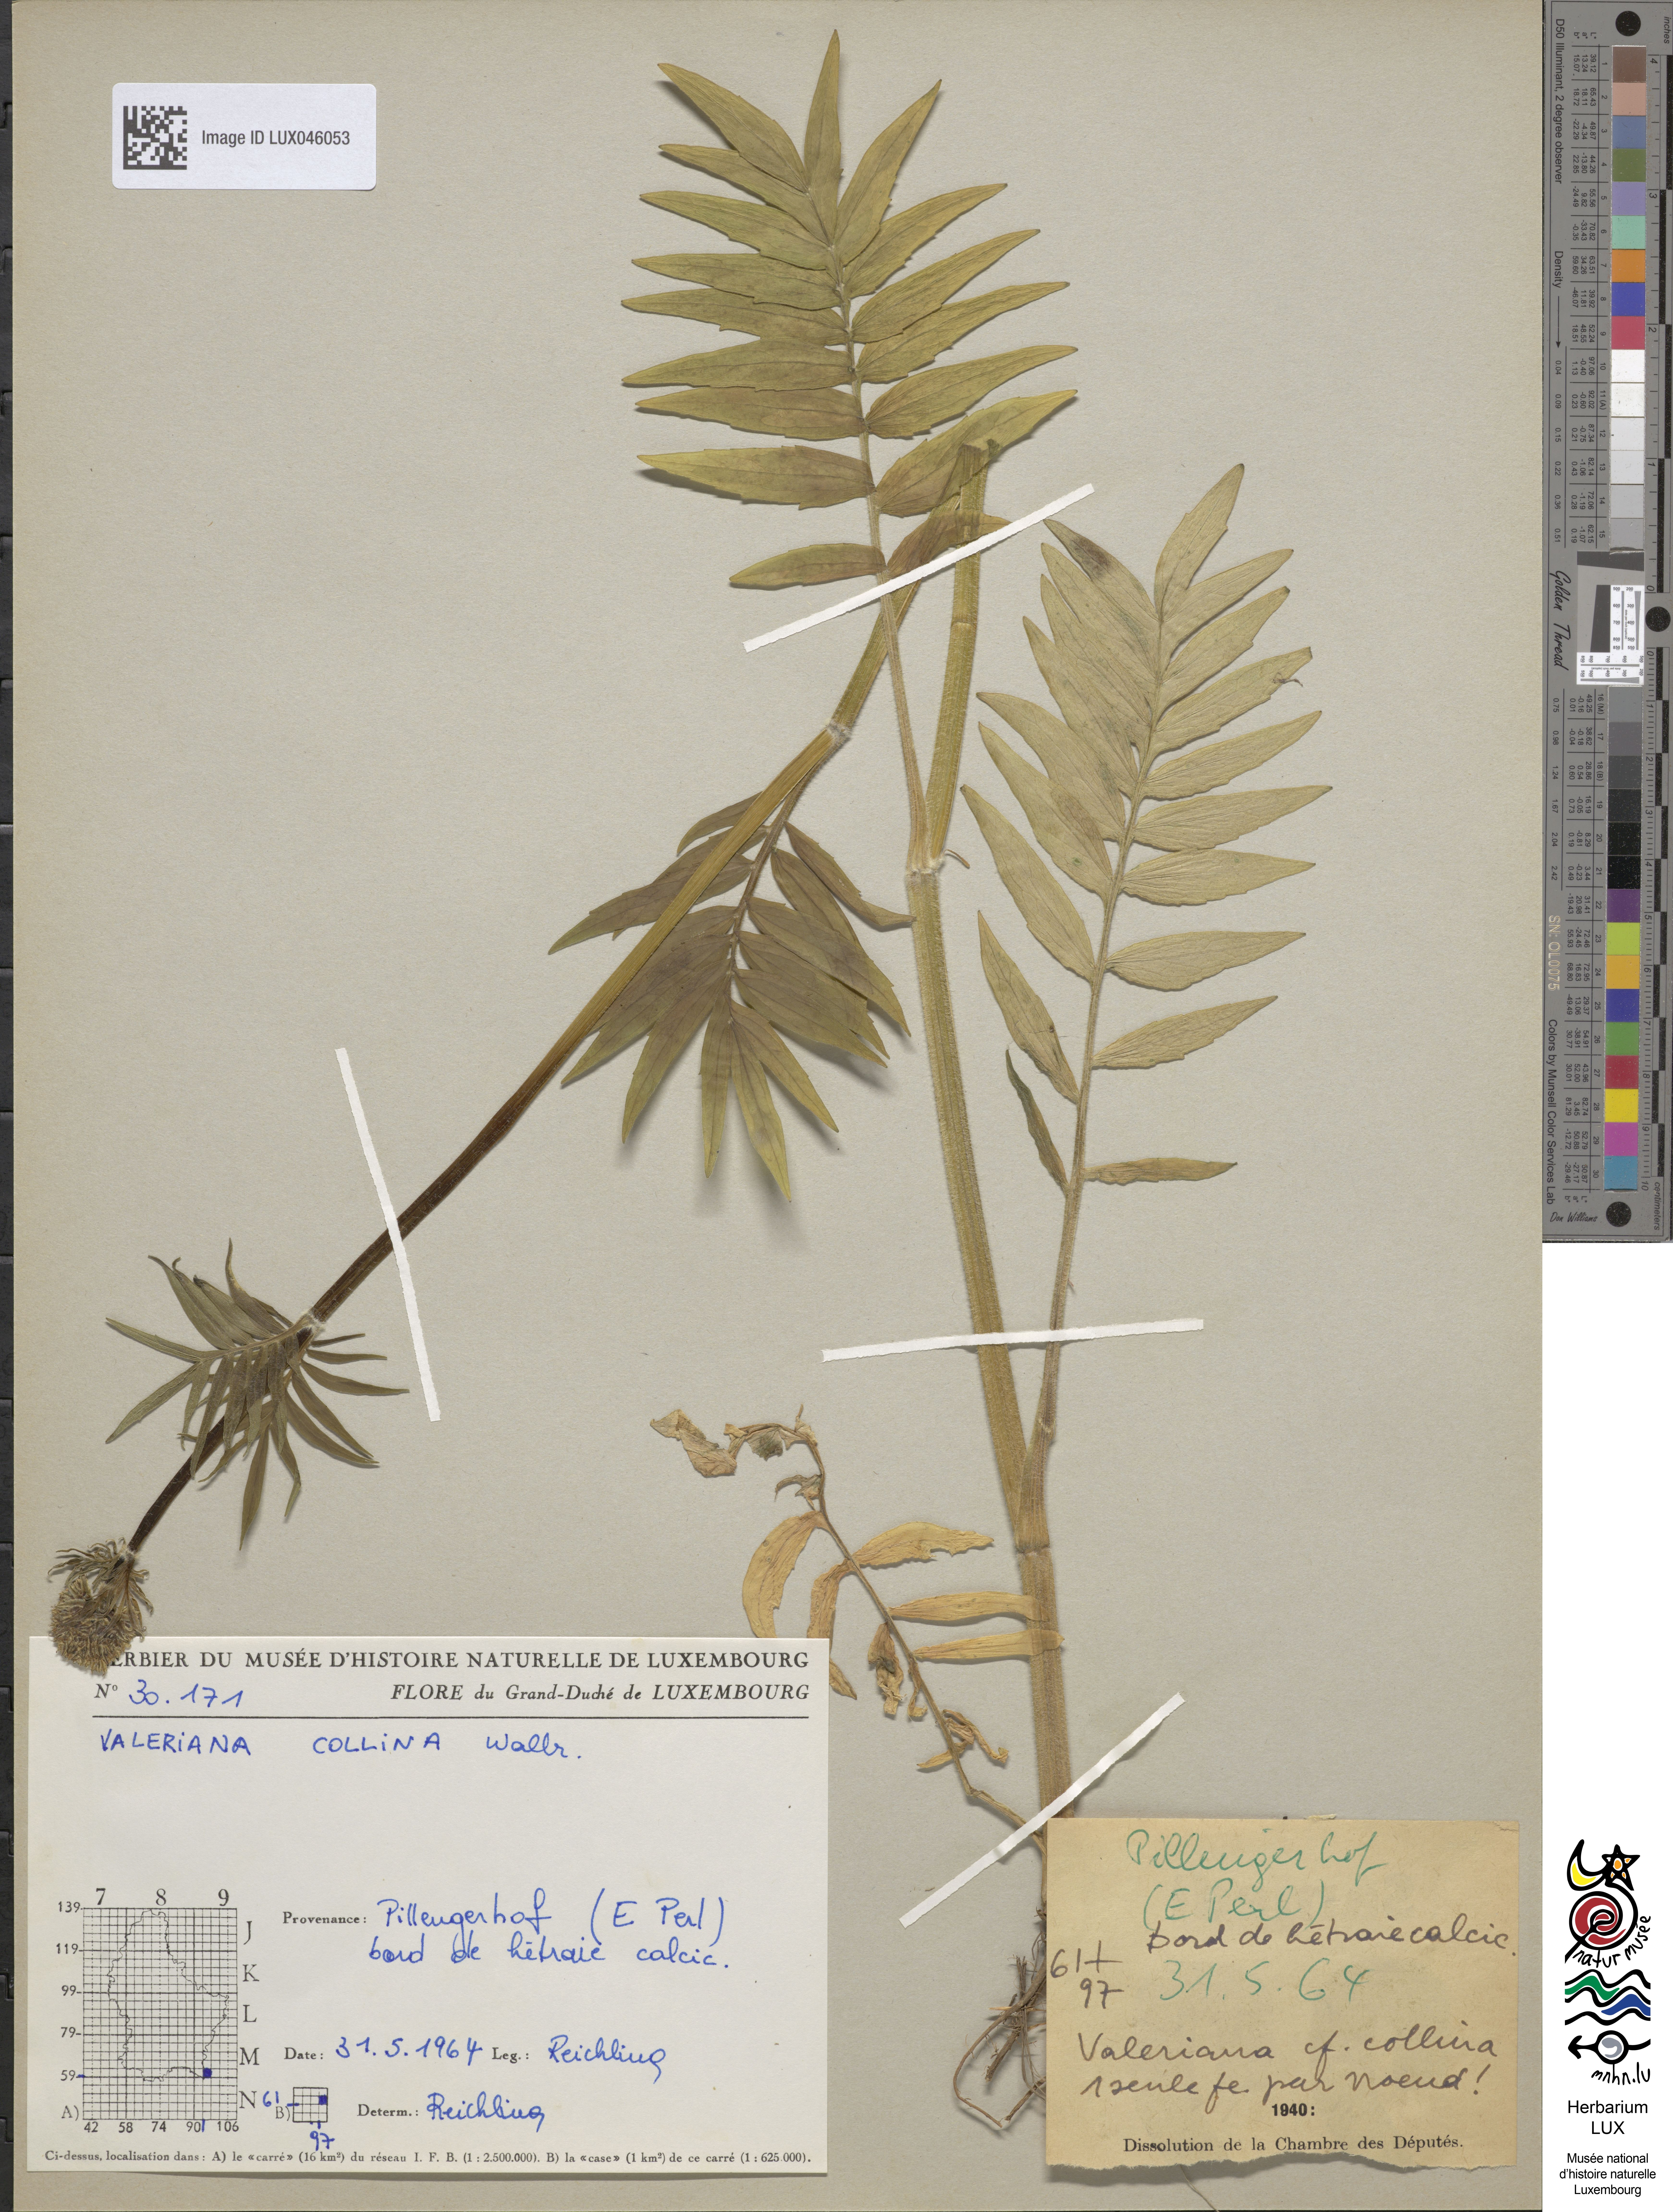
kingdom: Plantae
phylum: Tracheophyta
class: Magnoliopsida
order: Dipsacales
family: Caprifoliaceae
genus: Valeriana
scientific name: Valeriana pratensis
